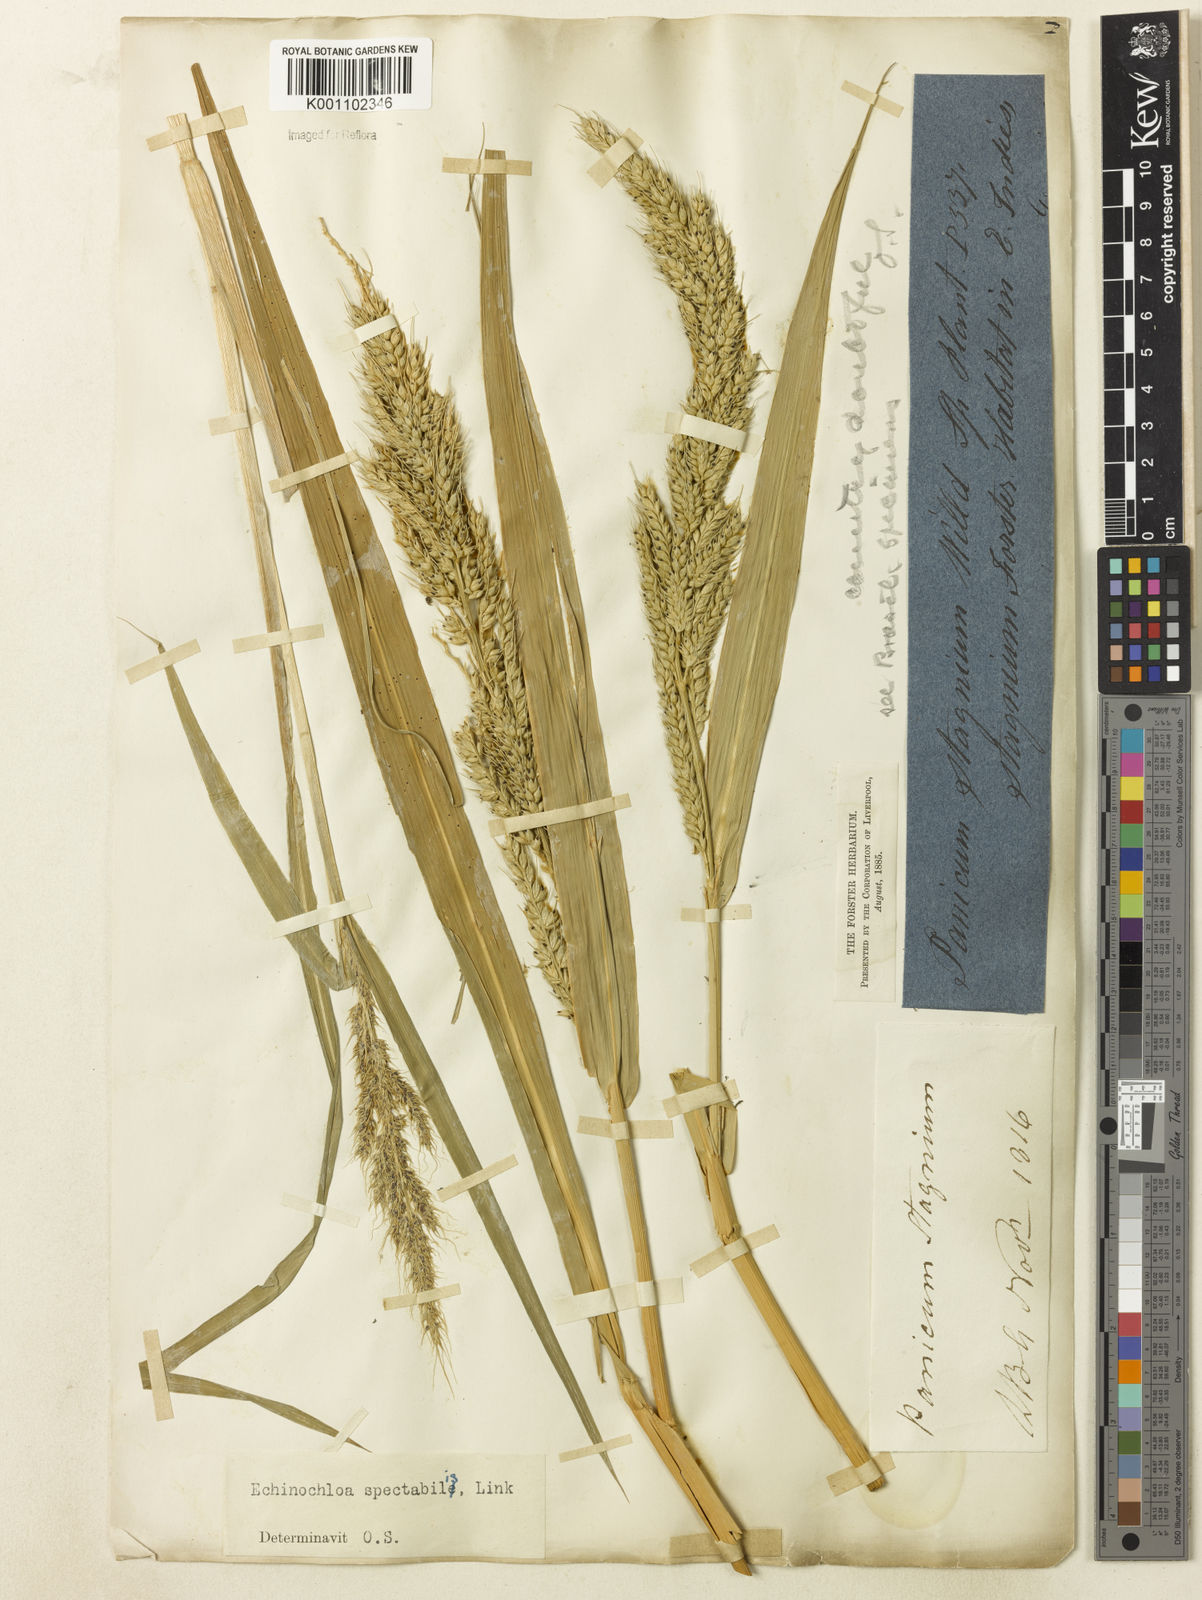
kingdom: Plantae
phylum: Tracheophyta
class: Liliopsida
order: Poales
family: Poaceae
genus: Echinochloa
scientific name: Echinochloa polystachya
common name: Creeping river grass
